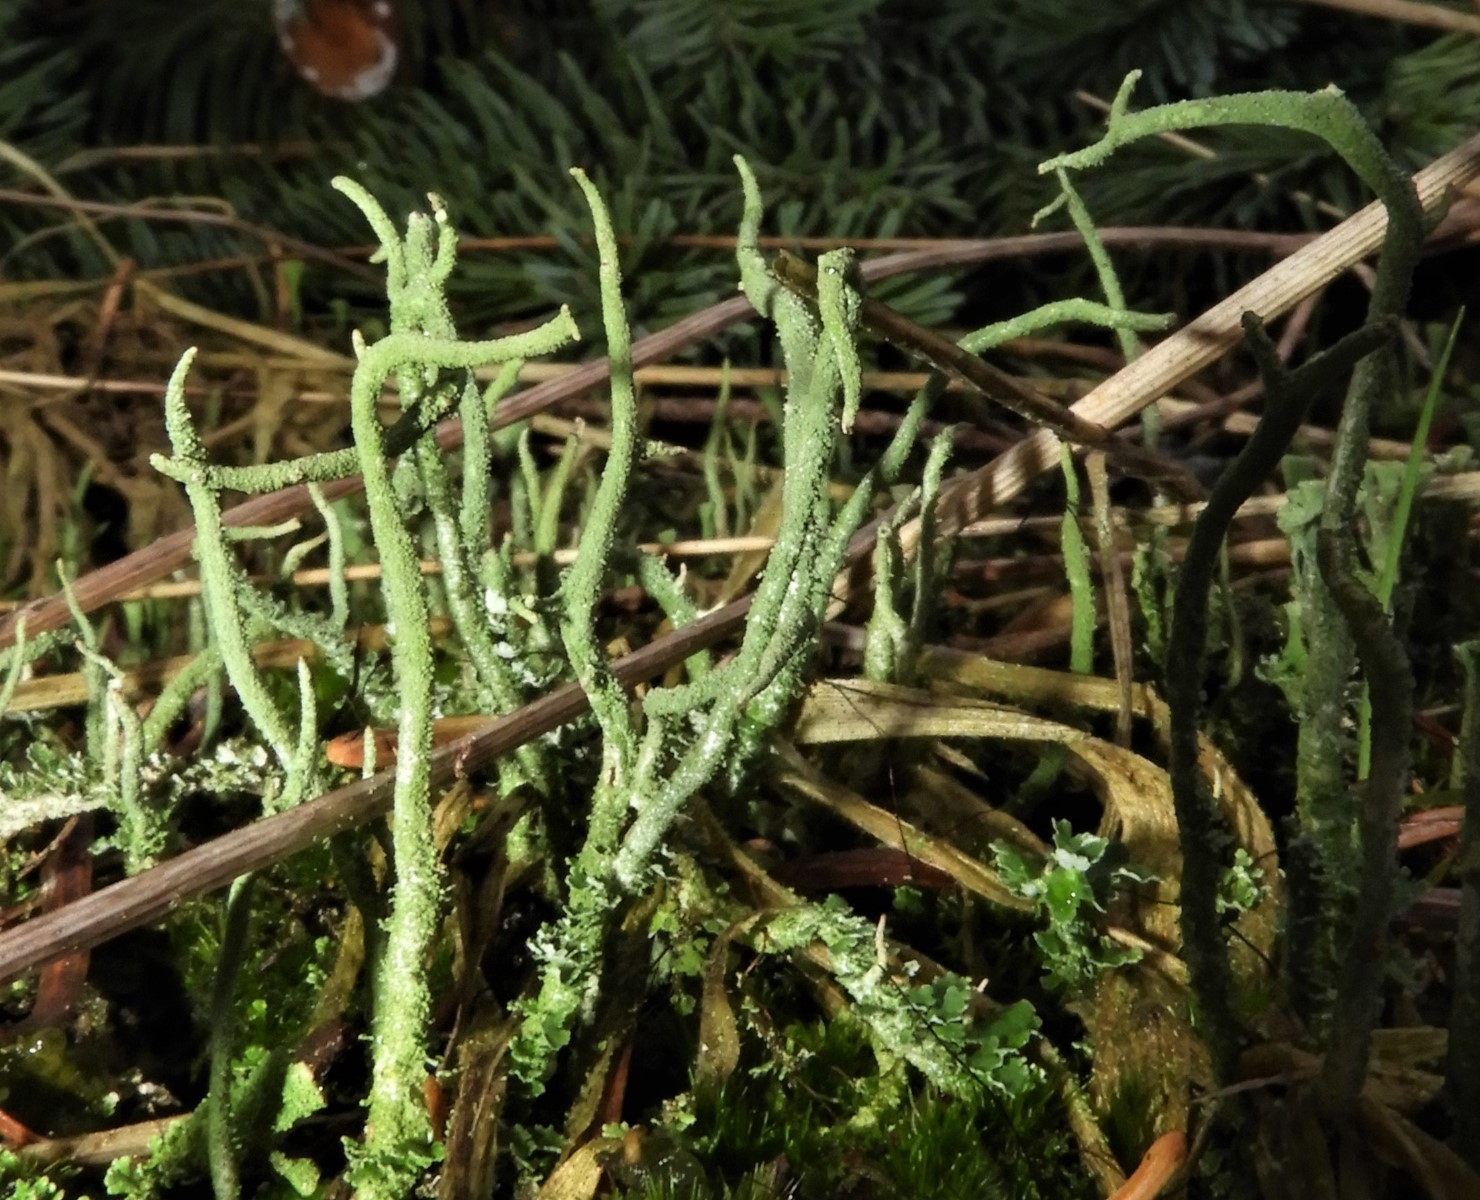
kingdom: Fungi
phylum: Ascomycota
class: Lecanoromycetes
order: Lecanorales
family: Cladoniaceae
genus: Cladonia
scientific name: Cladonia glauca
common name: grågrøn bægerlav
